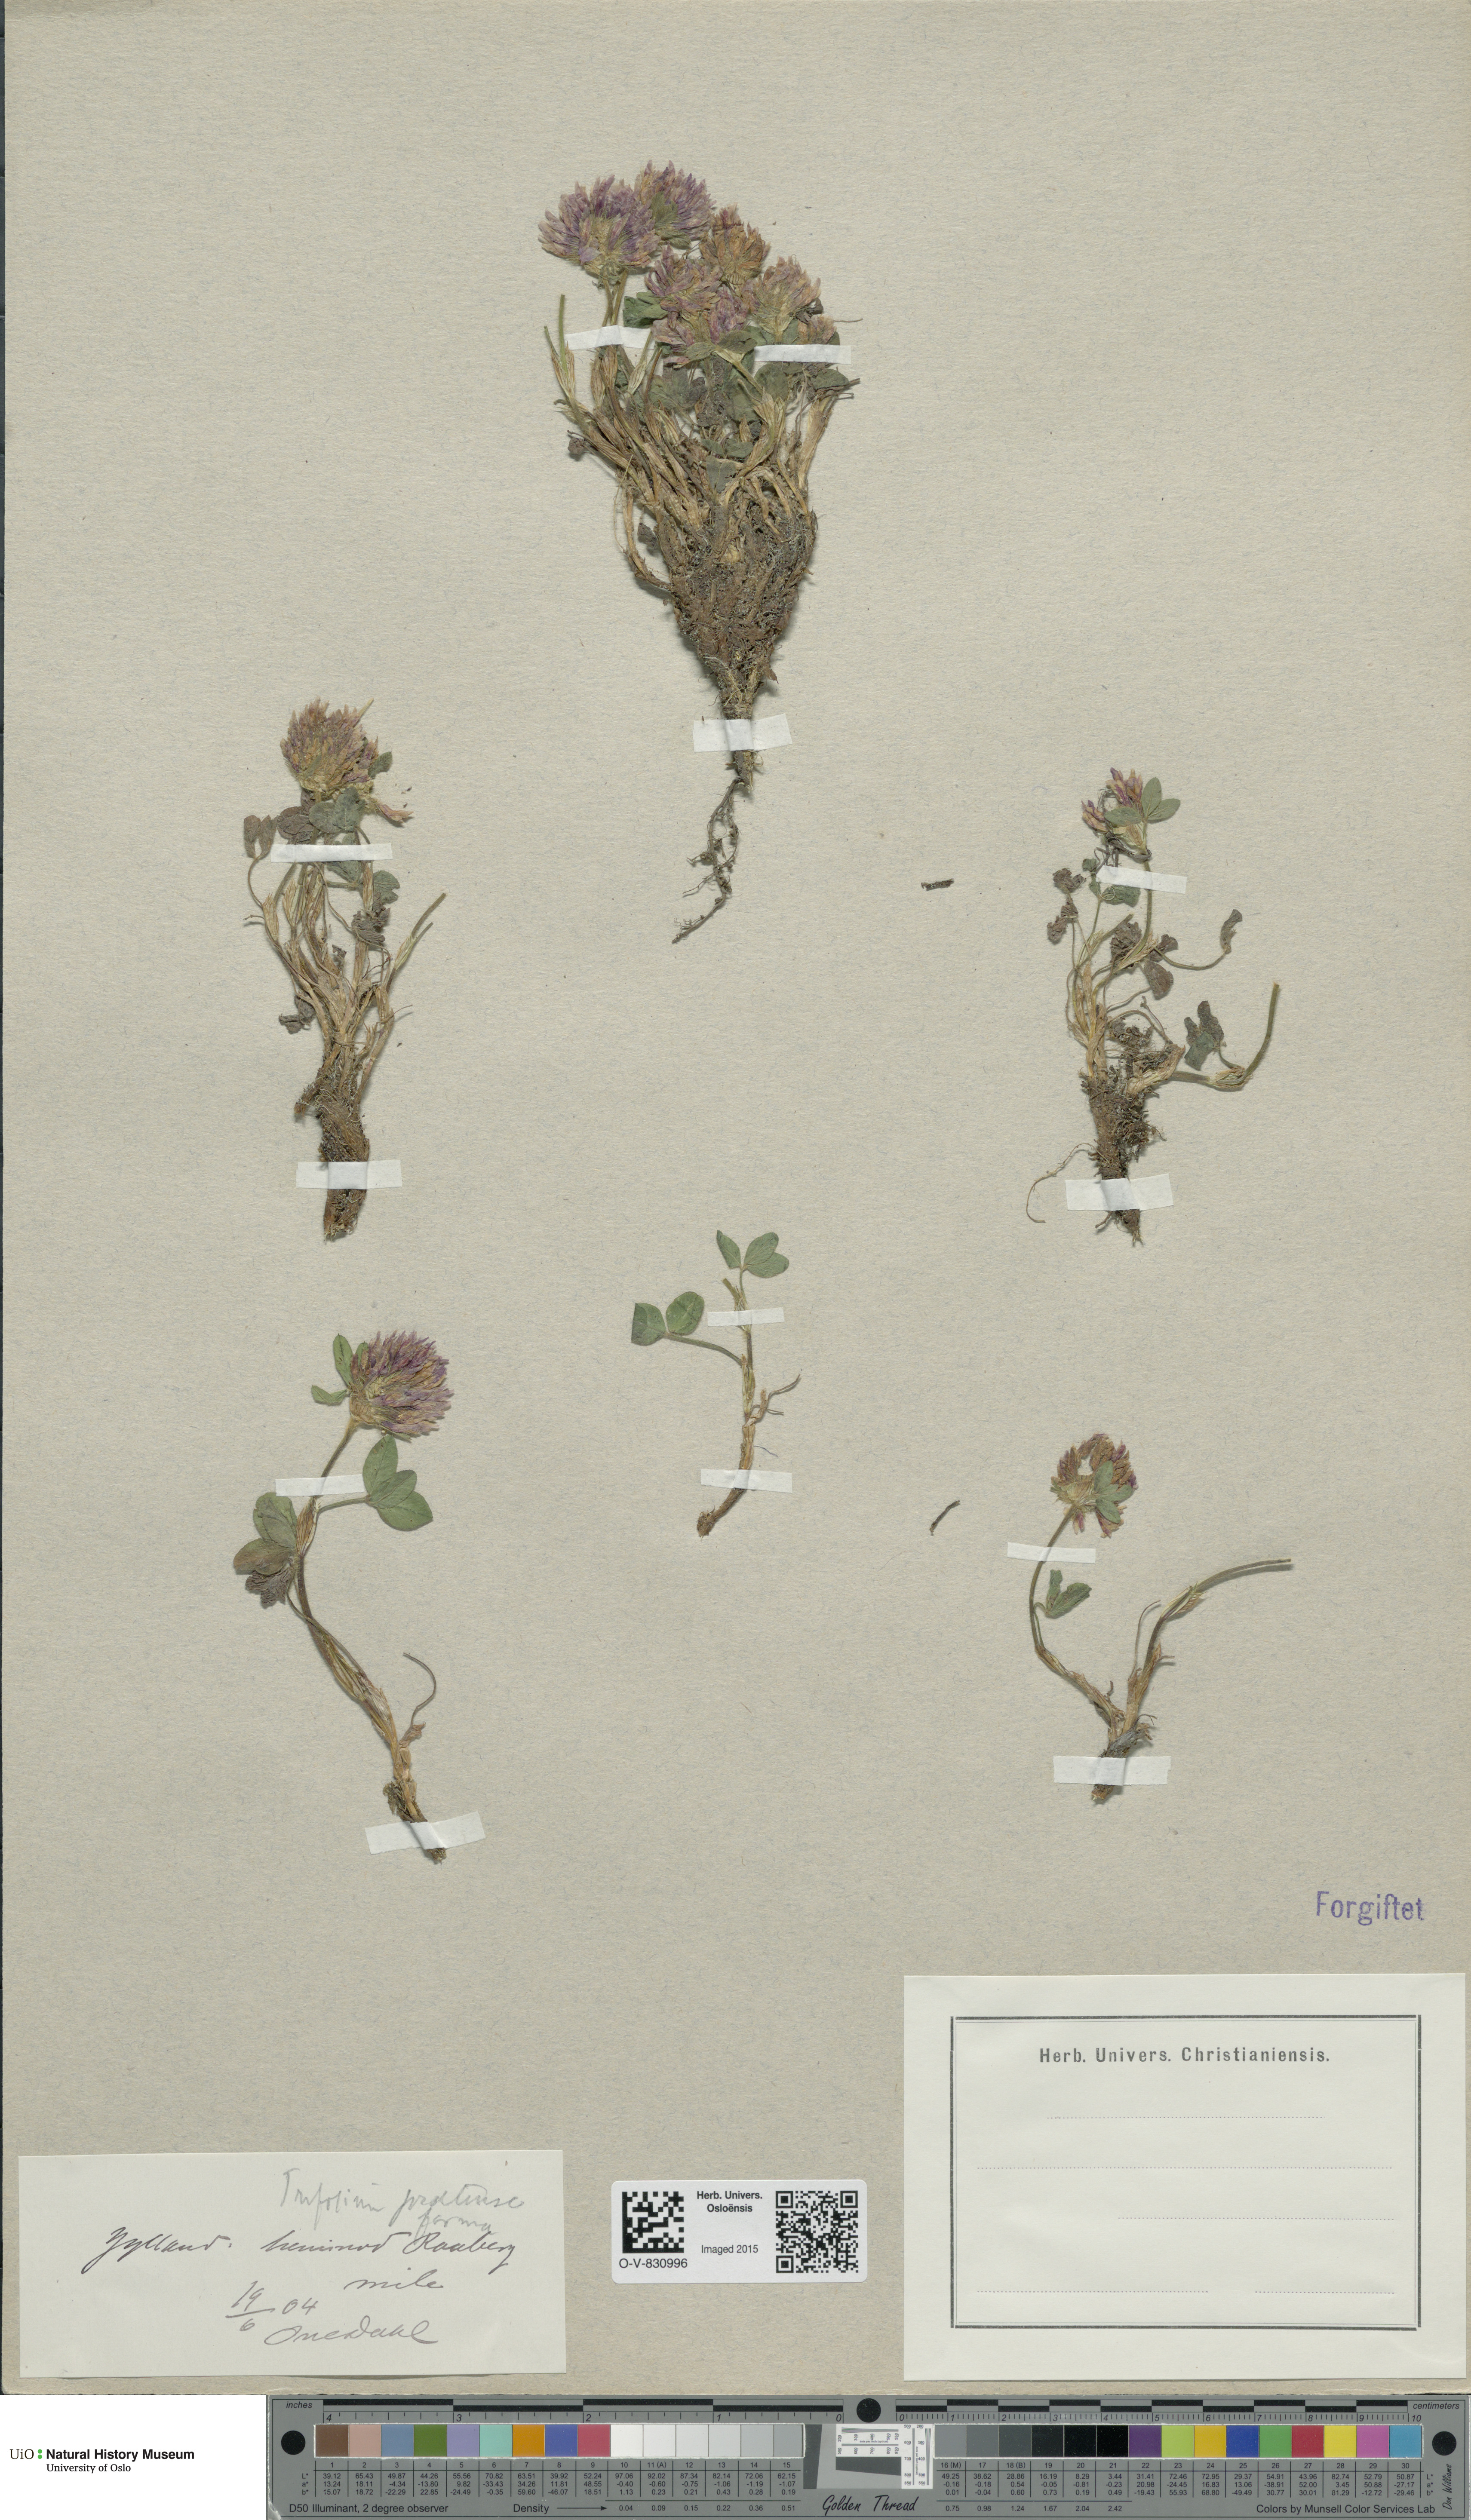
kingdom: Plantae
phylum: Tracheophyta
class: Magnoliopsida
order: Fabales
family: Fabaceae
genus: Trifolium
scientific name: Trifolium pratense
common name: Red clover
